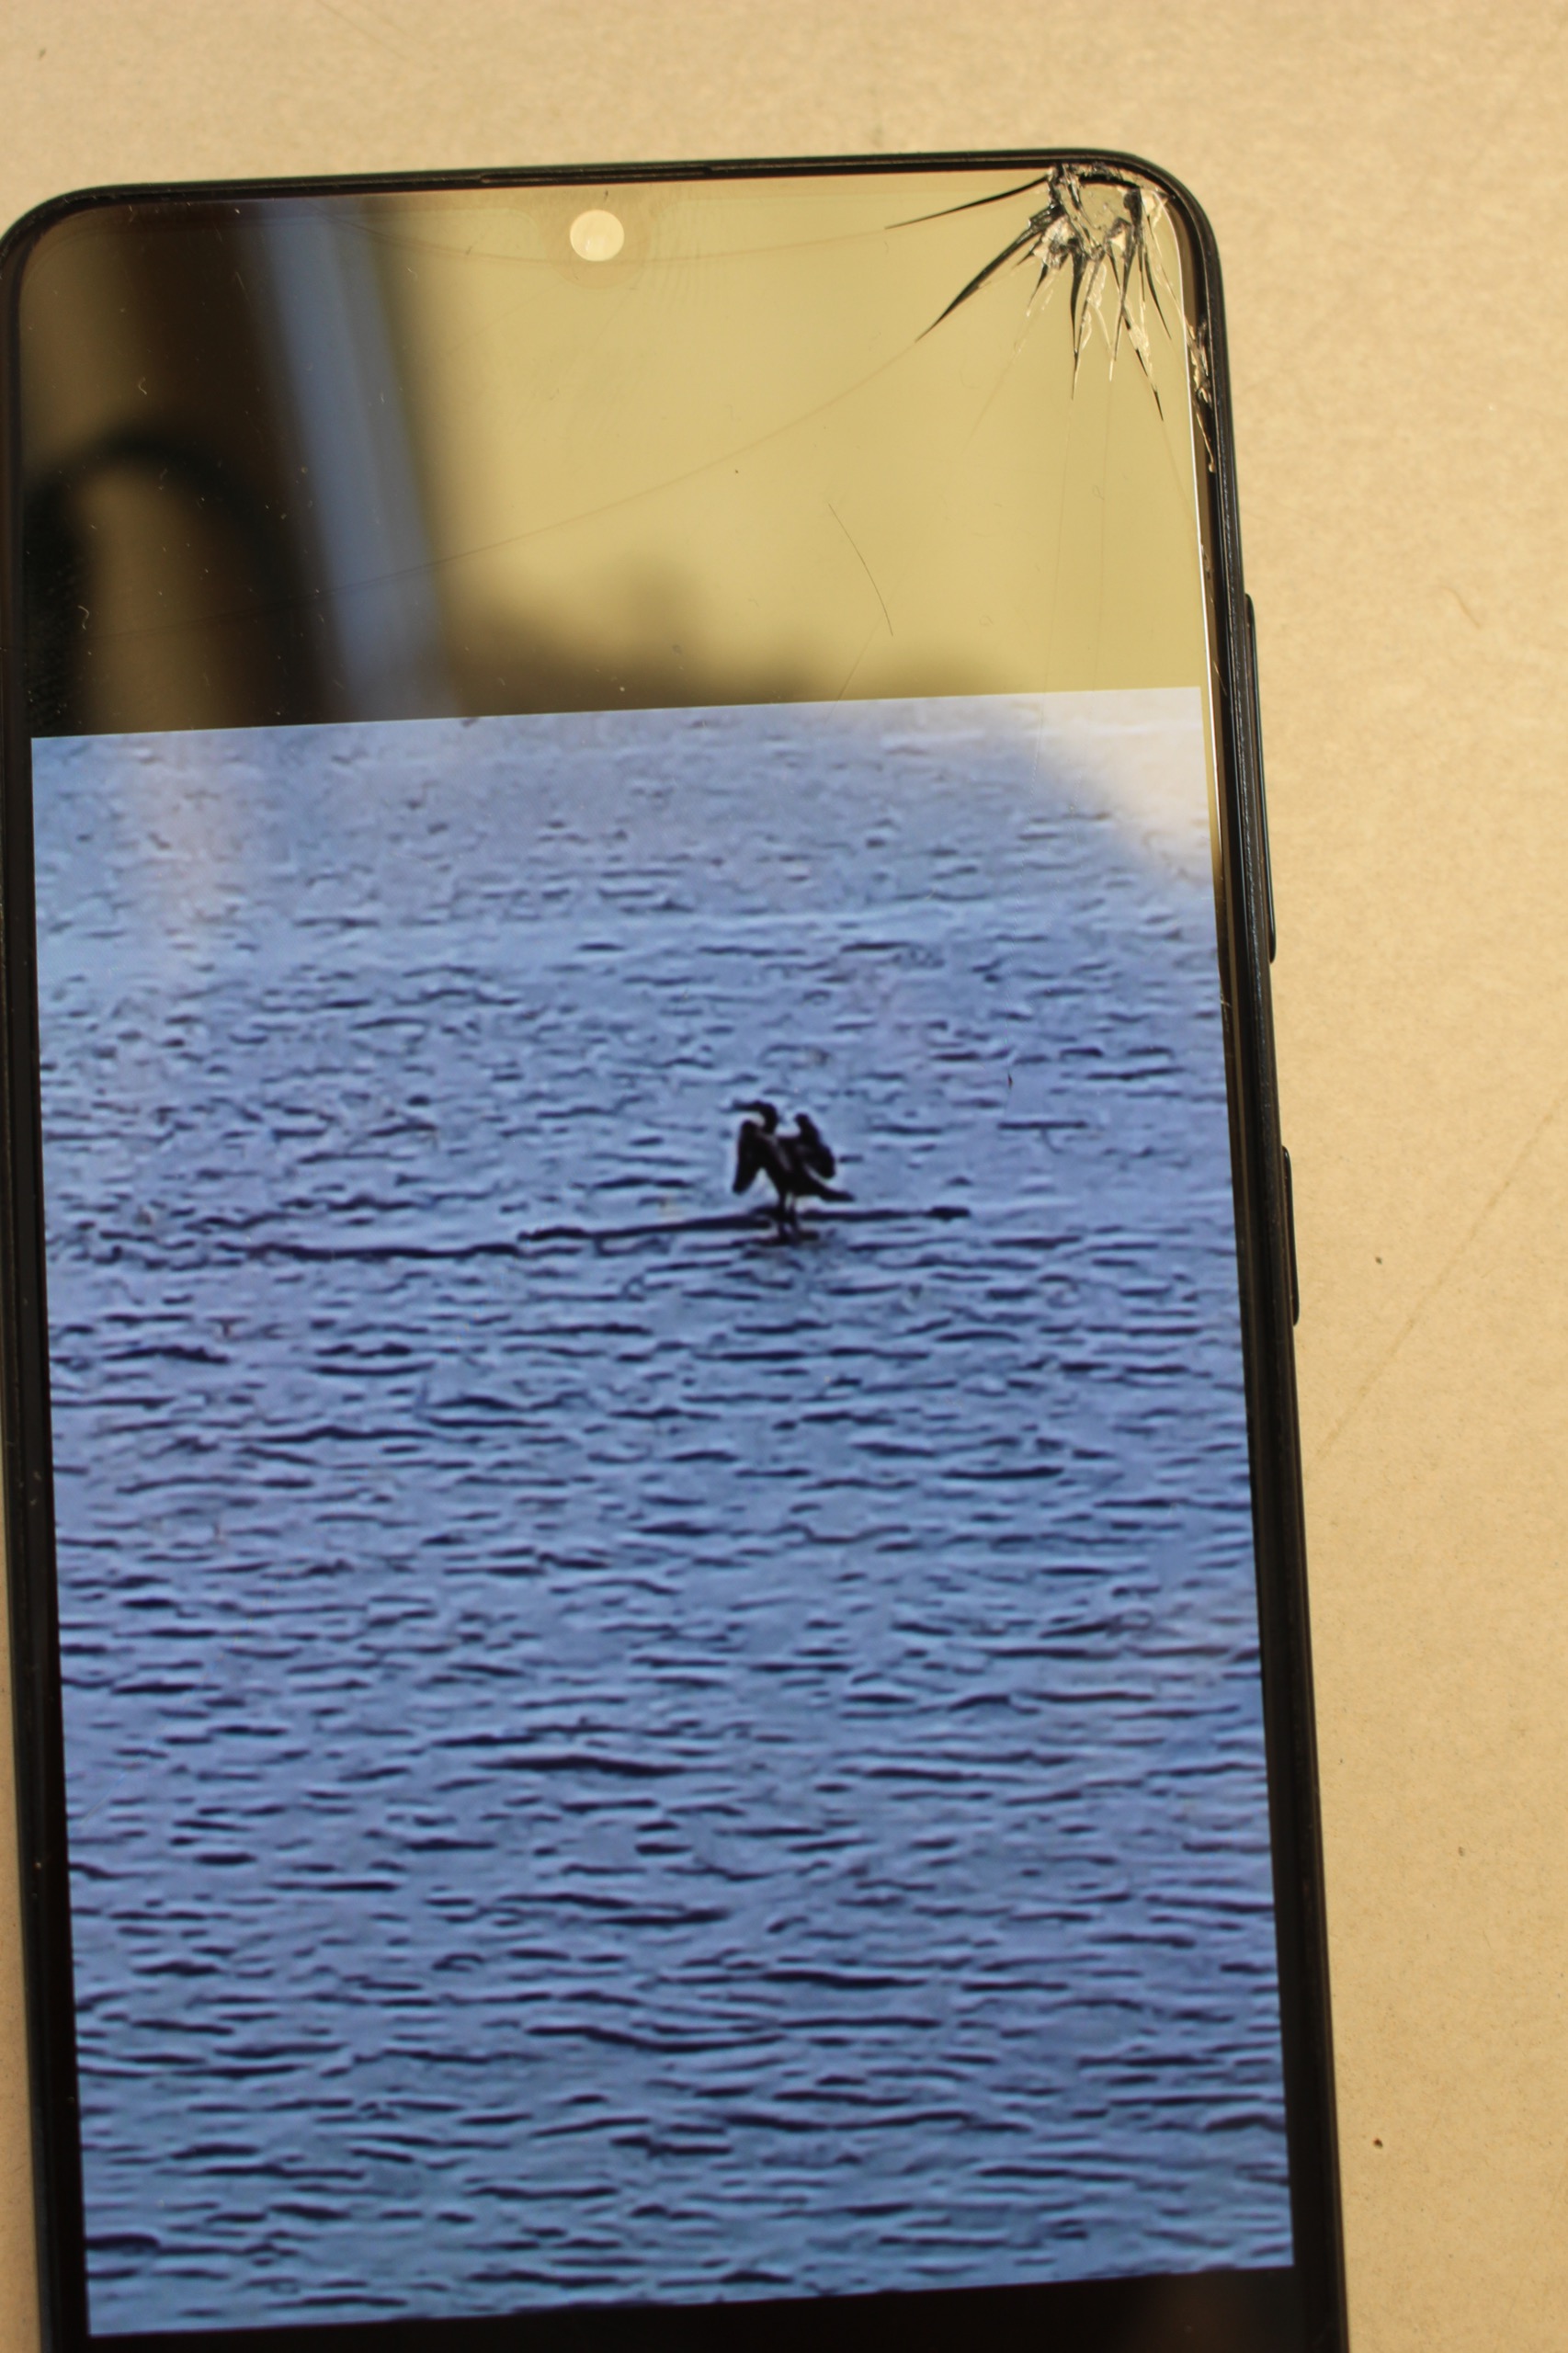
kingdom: Animalia
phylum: Chordata
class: Aves
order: Suliformes
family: Phalacrocoracidae
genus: Phalacrocorax
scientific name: Phalacrocorax carbo
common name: Skarv
